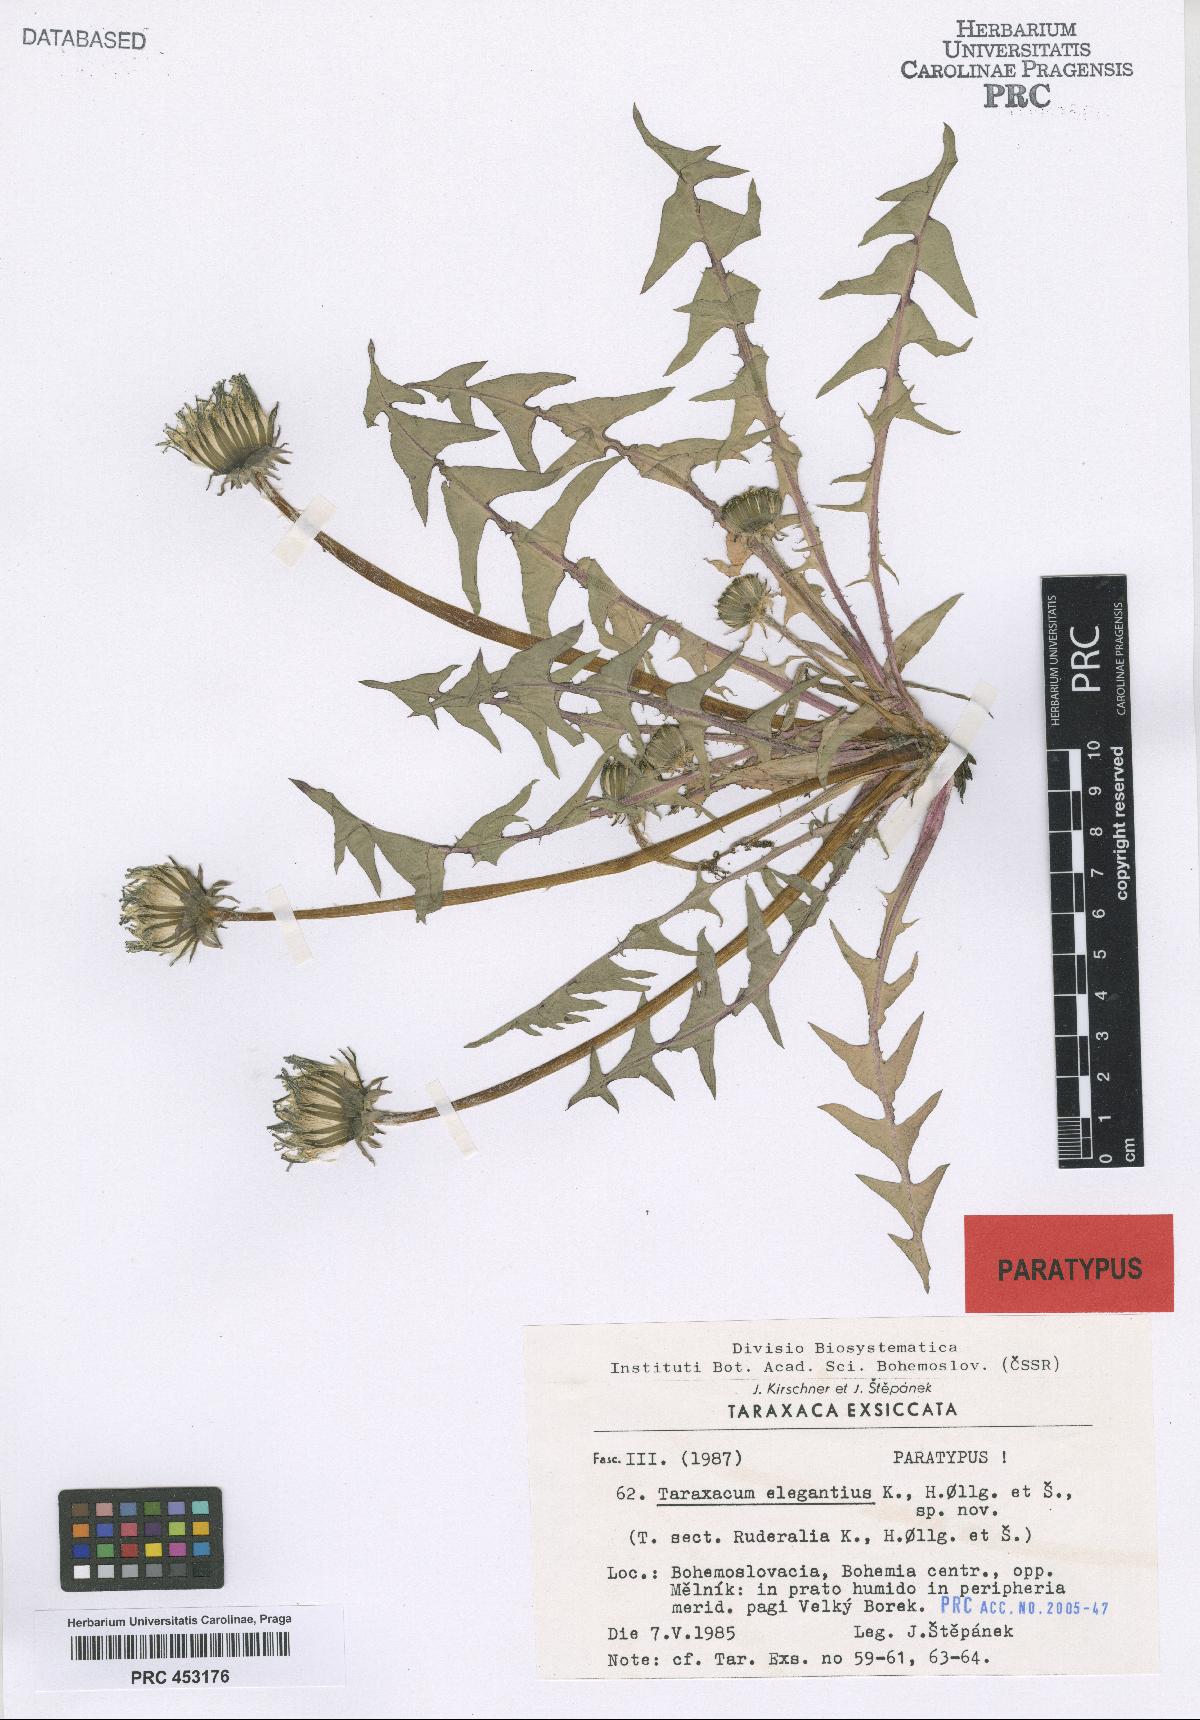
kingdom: Plantae
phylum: Tracheophyta
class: Magnoliopsida
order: Asterales
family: Asteraceae
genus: Taraxacum
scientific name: Taraxacum elegantius
